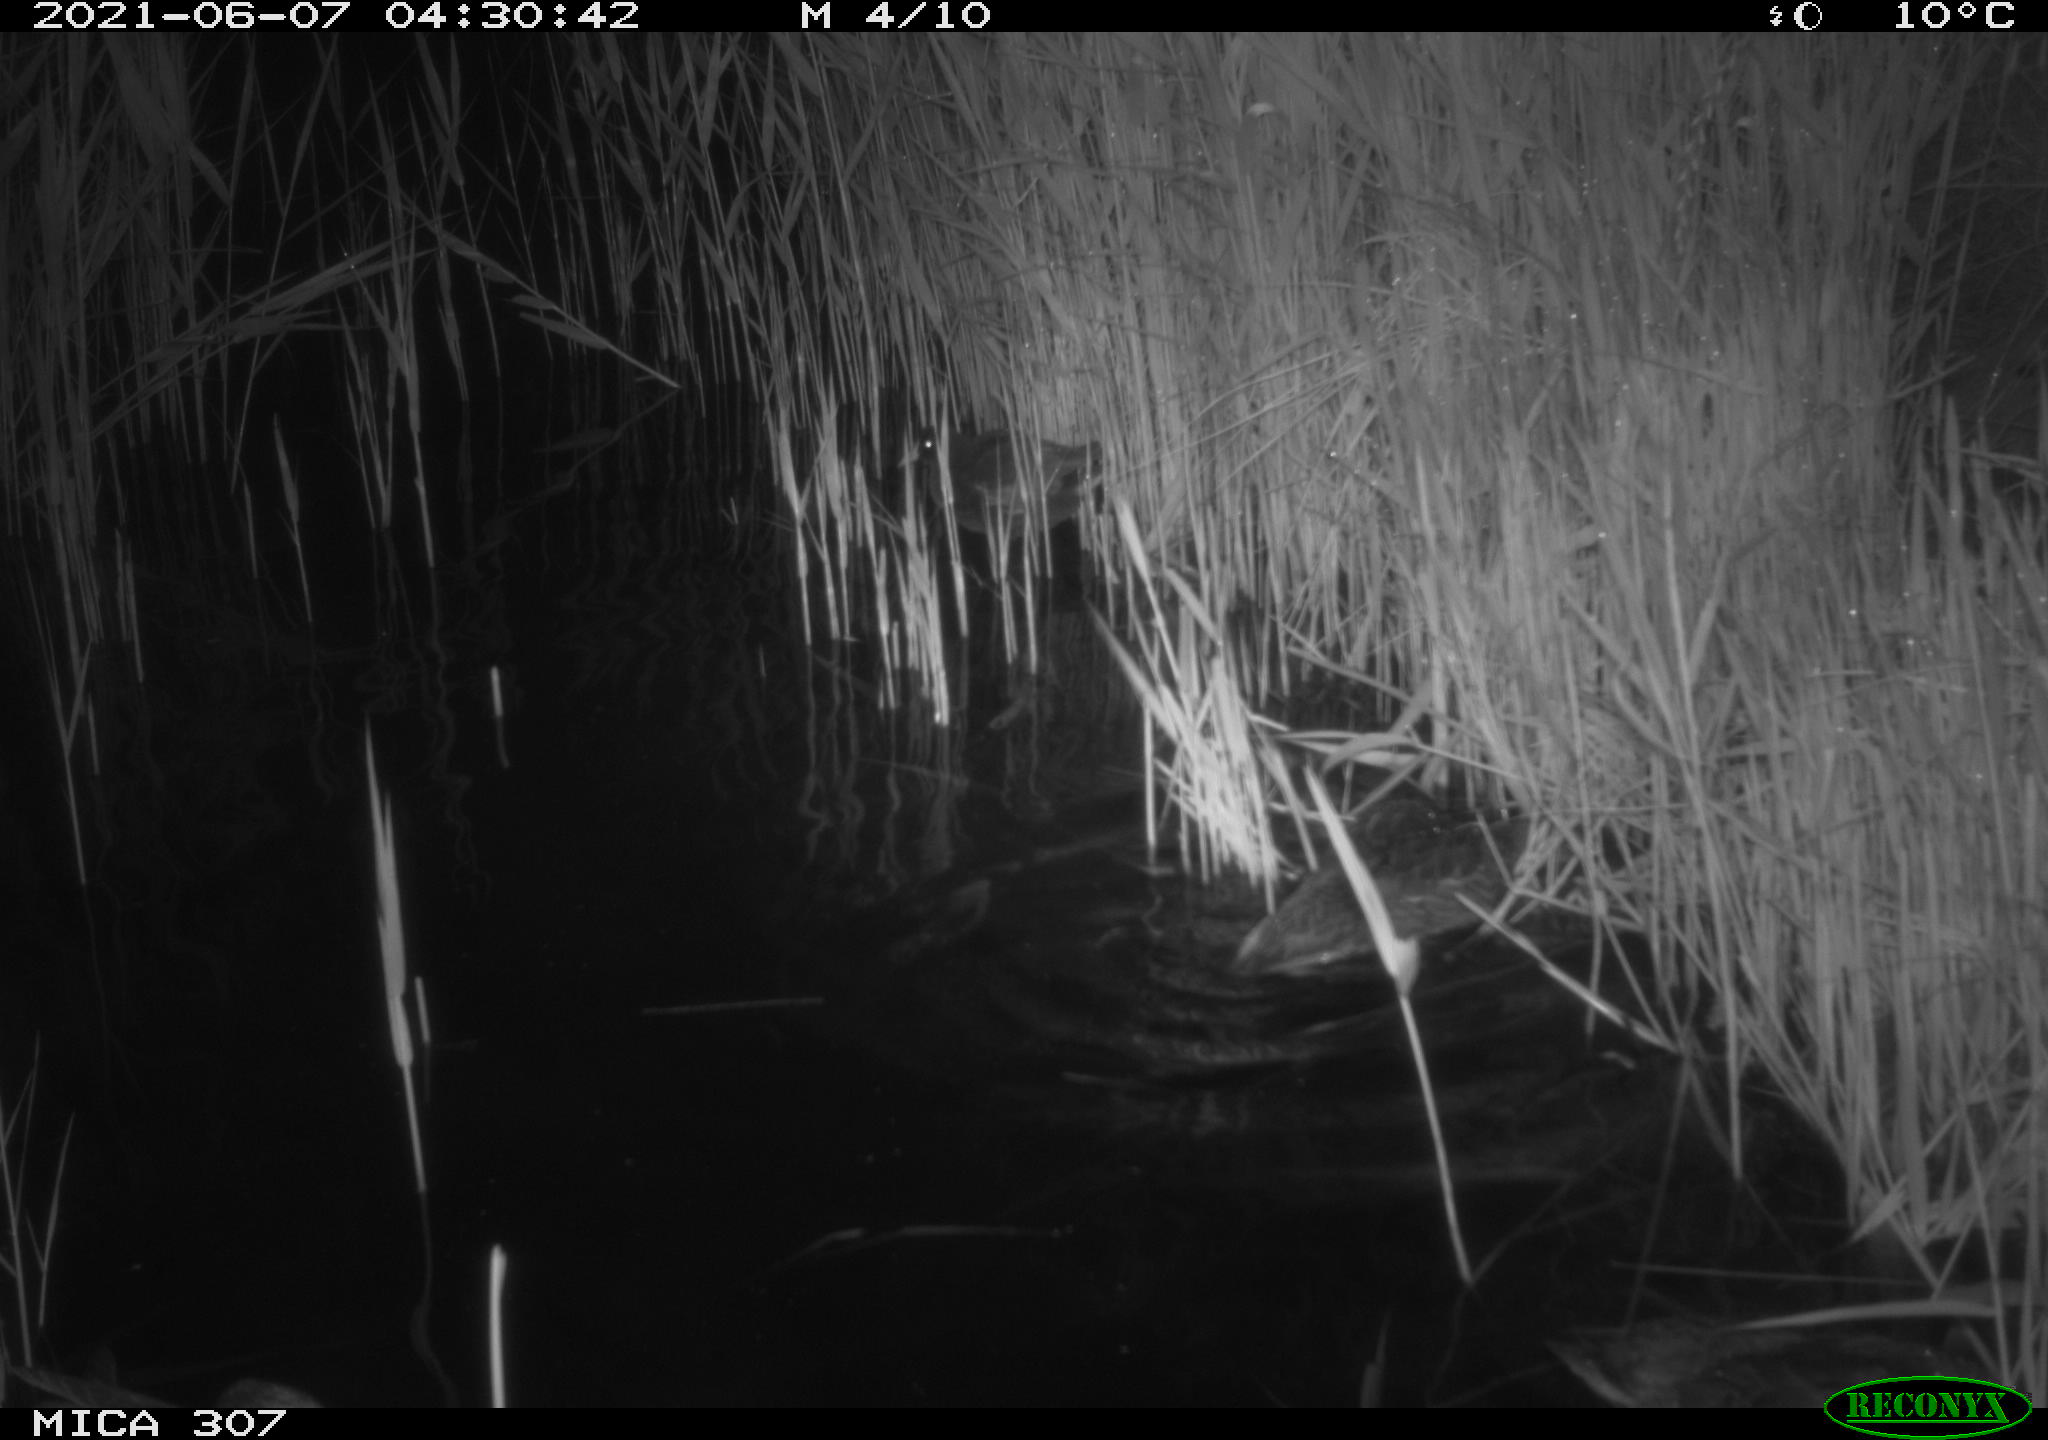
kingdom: Animalia
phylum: Chordata
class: Aves
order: Anseriformes
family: Anatidae
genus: Mareca
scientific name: Mareca strepera
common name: Gadwall
